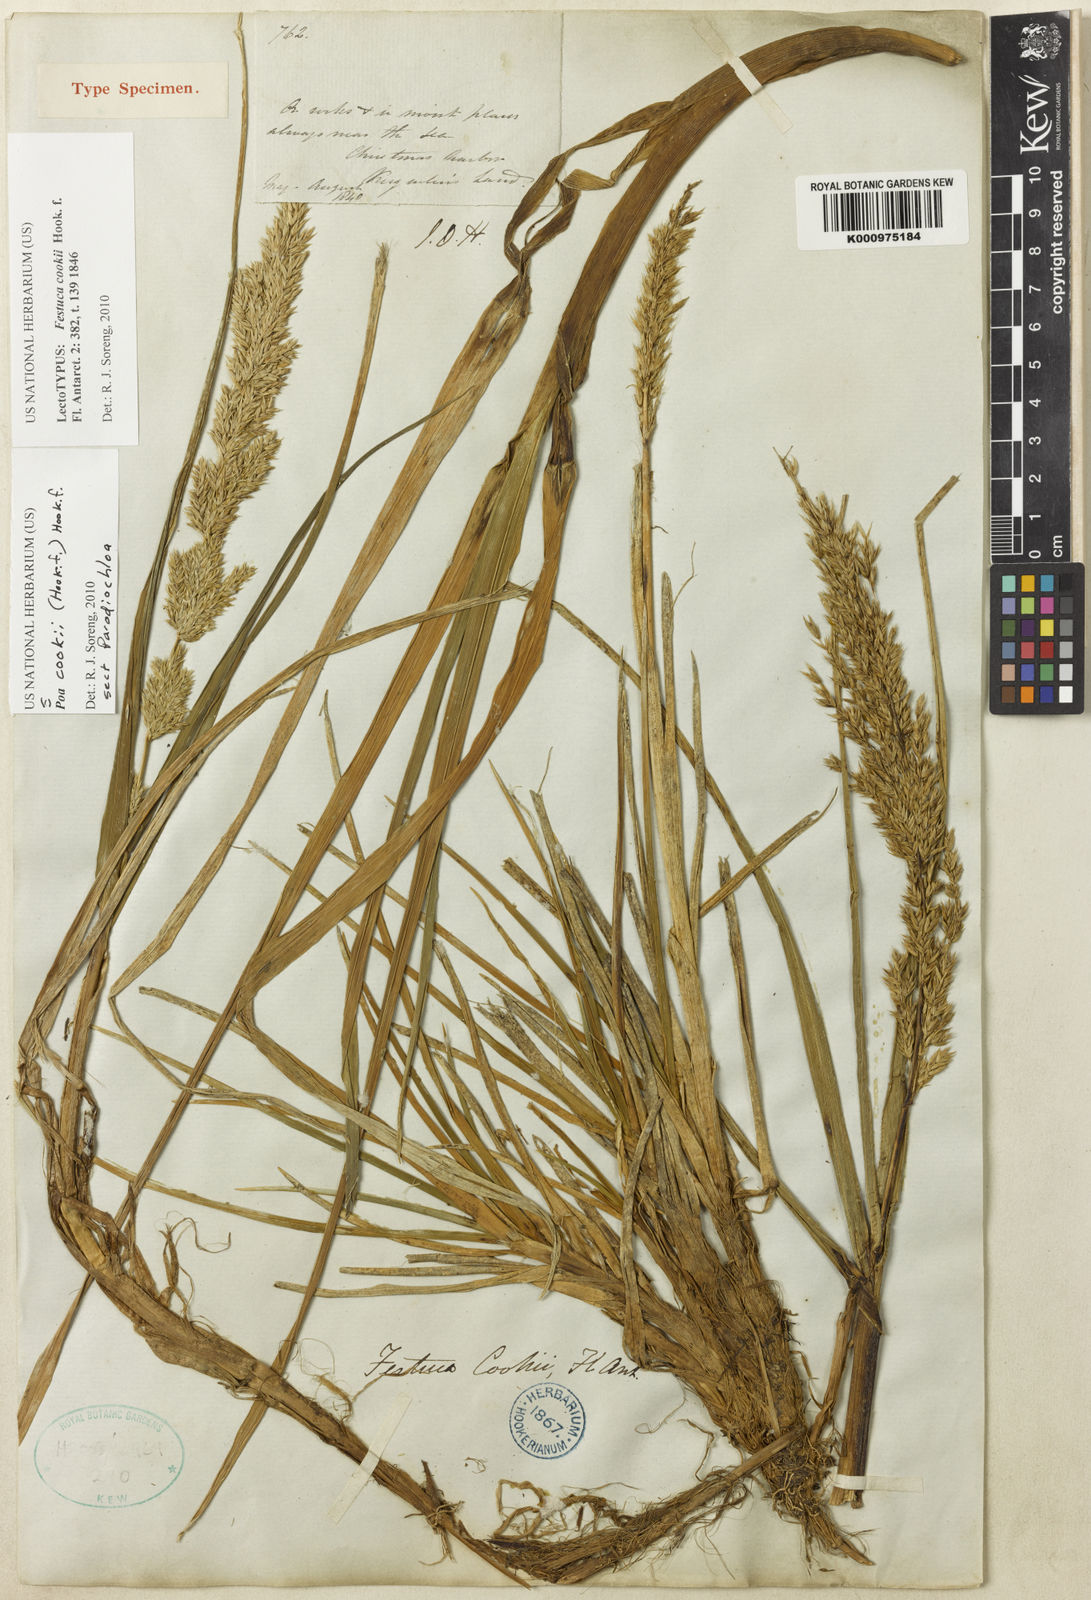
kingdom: Plantae
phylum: Tracheophyta
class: Liliopsida
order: Poales
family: Poaceae
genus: Poa
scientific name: Poa cookii
